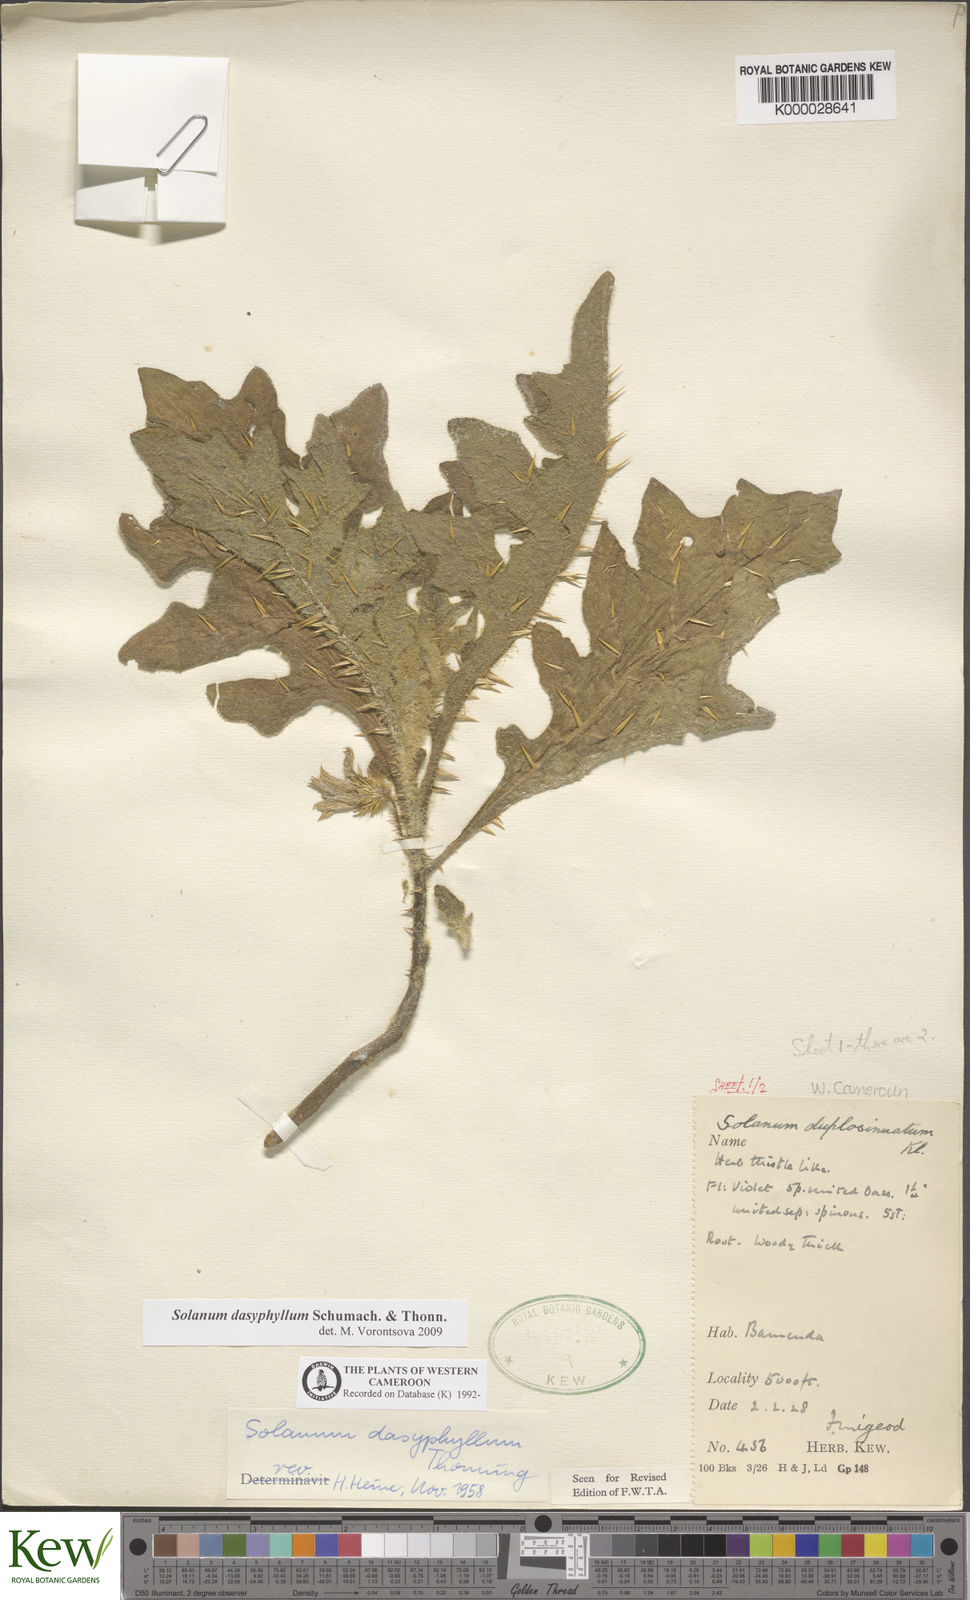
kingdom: Plantae
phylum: Tracheophyta
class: Magnoliopsida
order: Solanales
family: Solanaceae
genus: Solanum
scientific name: Solanum dasyphyllum
